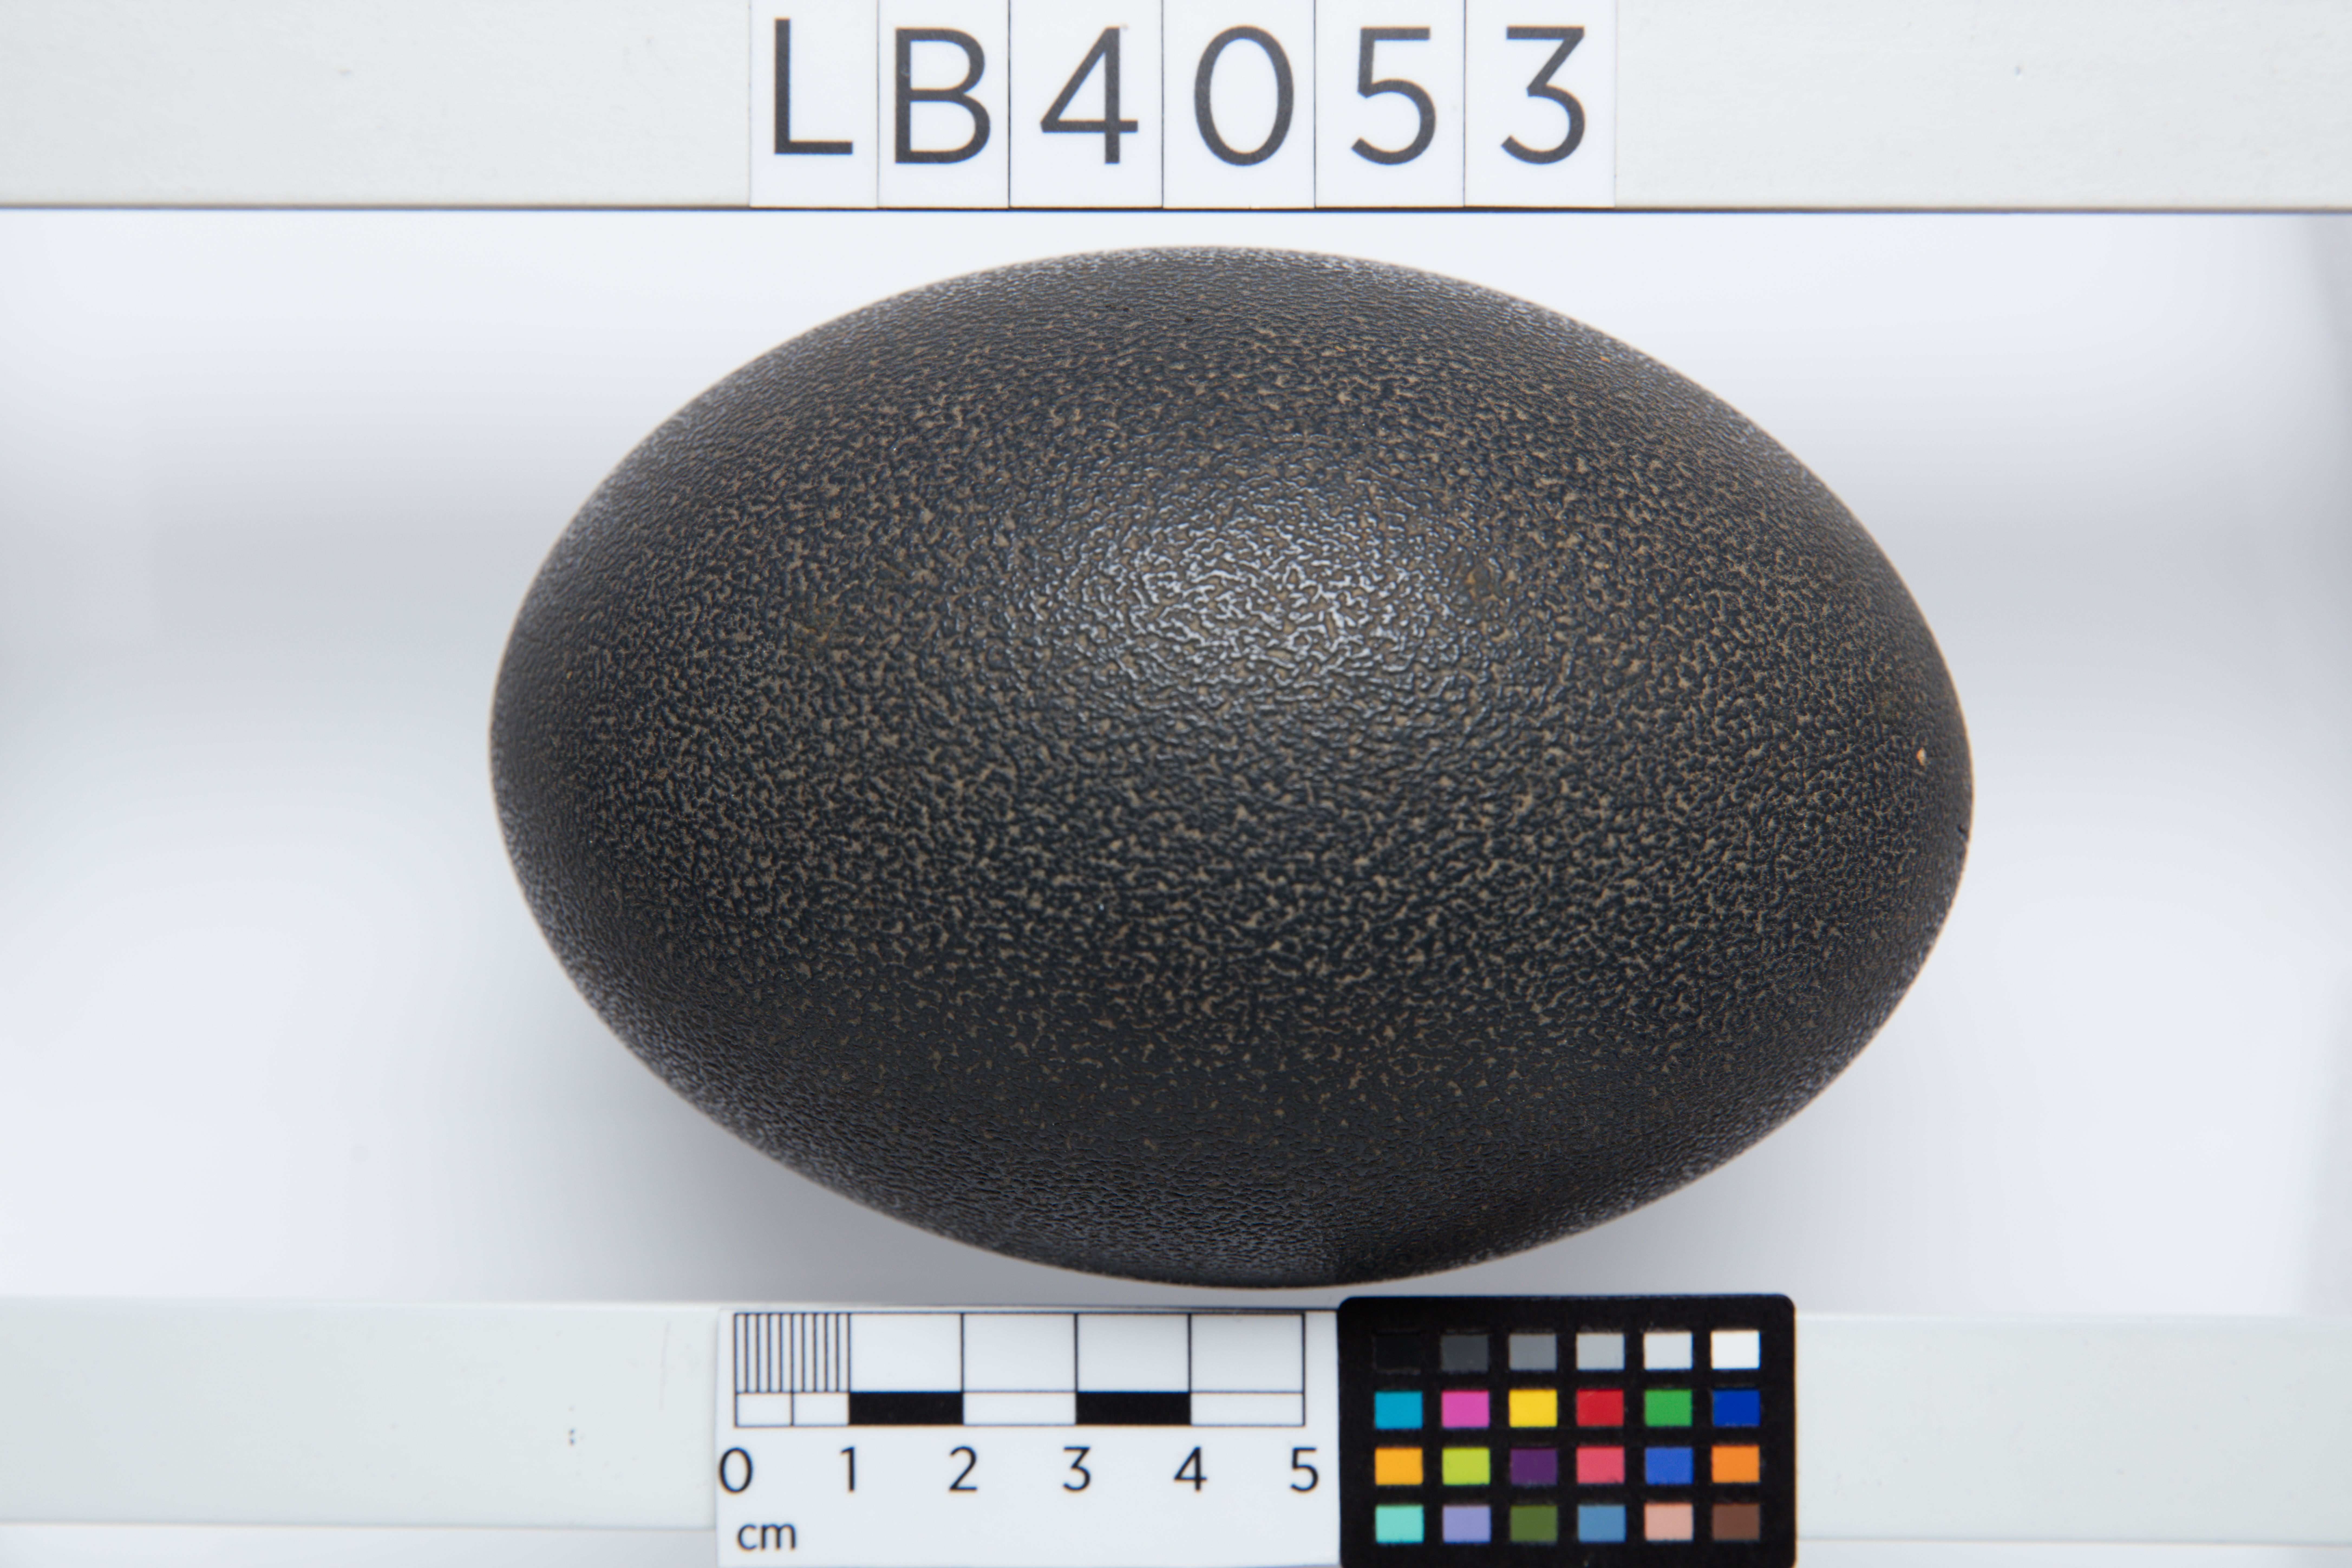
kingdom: Animalia
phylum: Chordata
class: Aves
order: Casuariiformes
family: Dromaiidae
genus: Dromaius
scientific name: Dromaius novaehollandiae
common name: Emu
